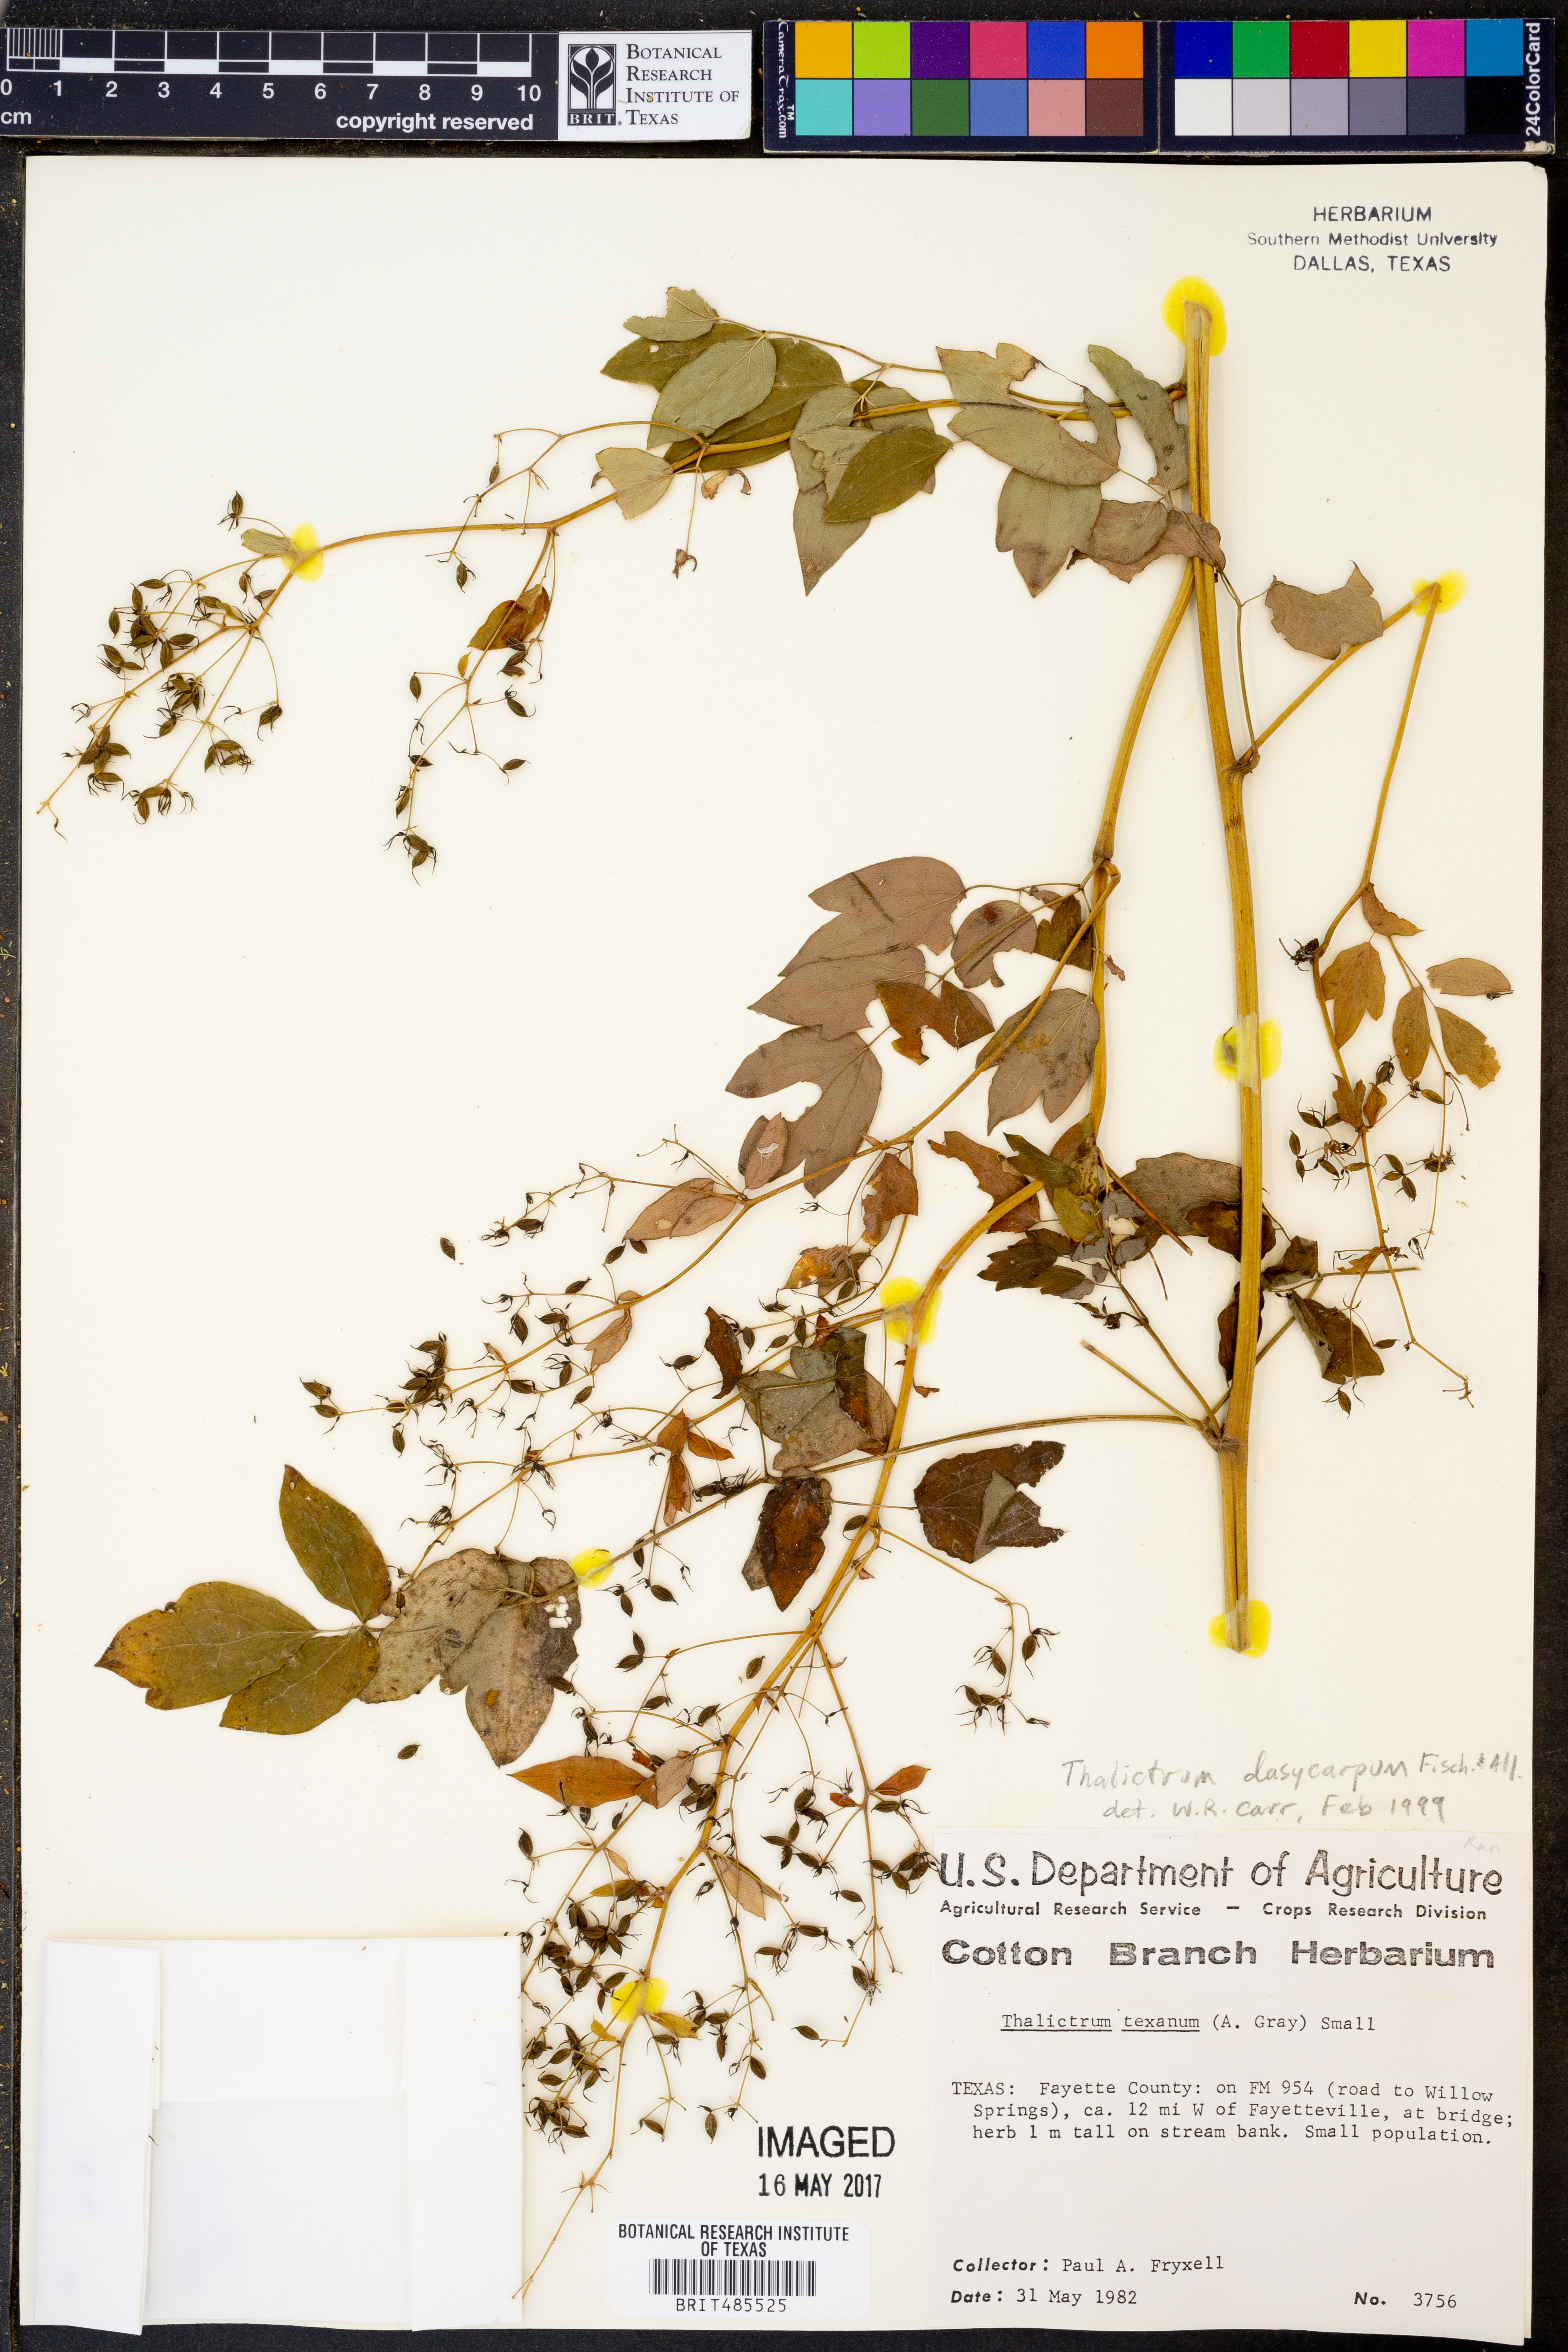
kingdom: Plantae
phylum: Tracheophyta
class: Magnoliopsida
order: Ranunculales
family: Ranunculaceae
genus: Thalictrum
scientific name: Thalictrum dasycarpum
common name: Purple meadow-rue
